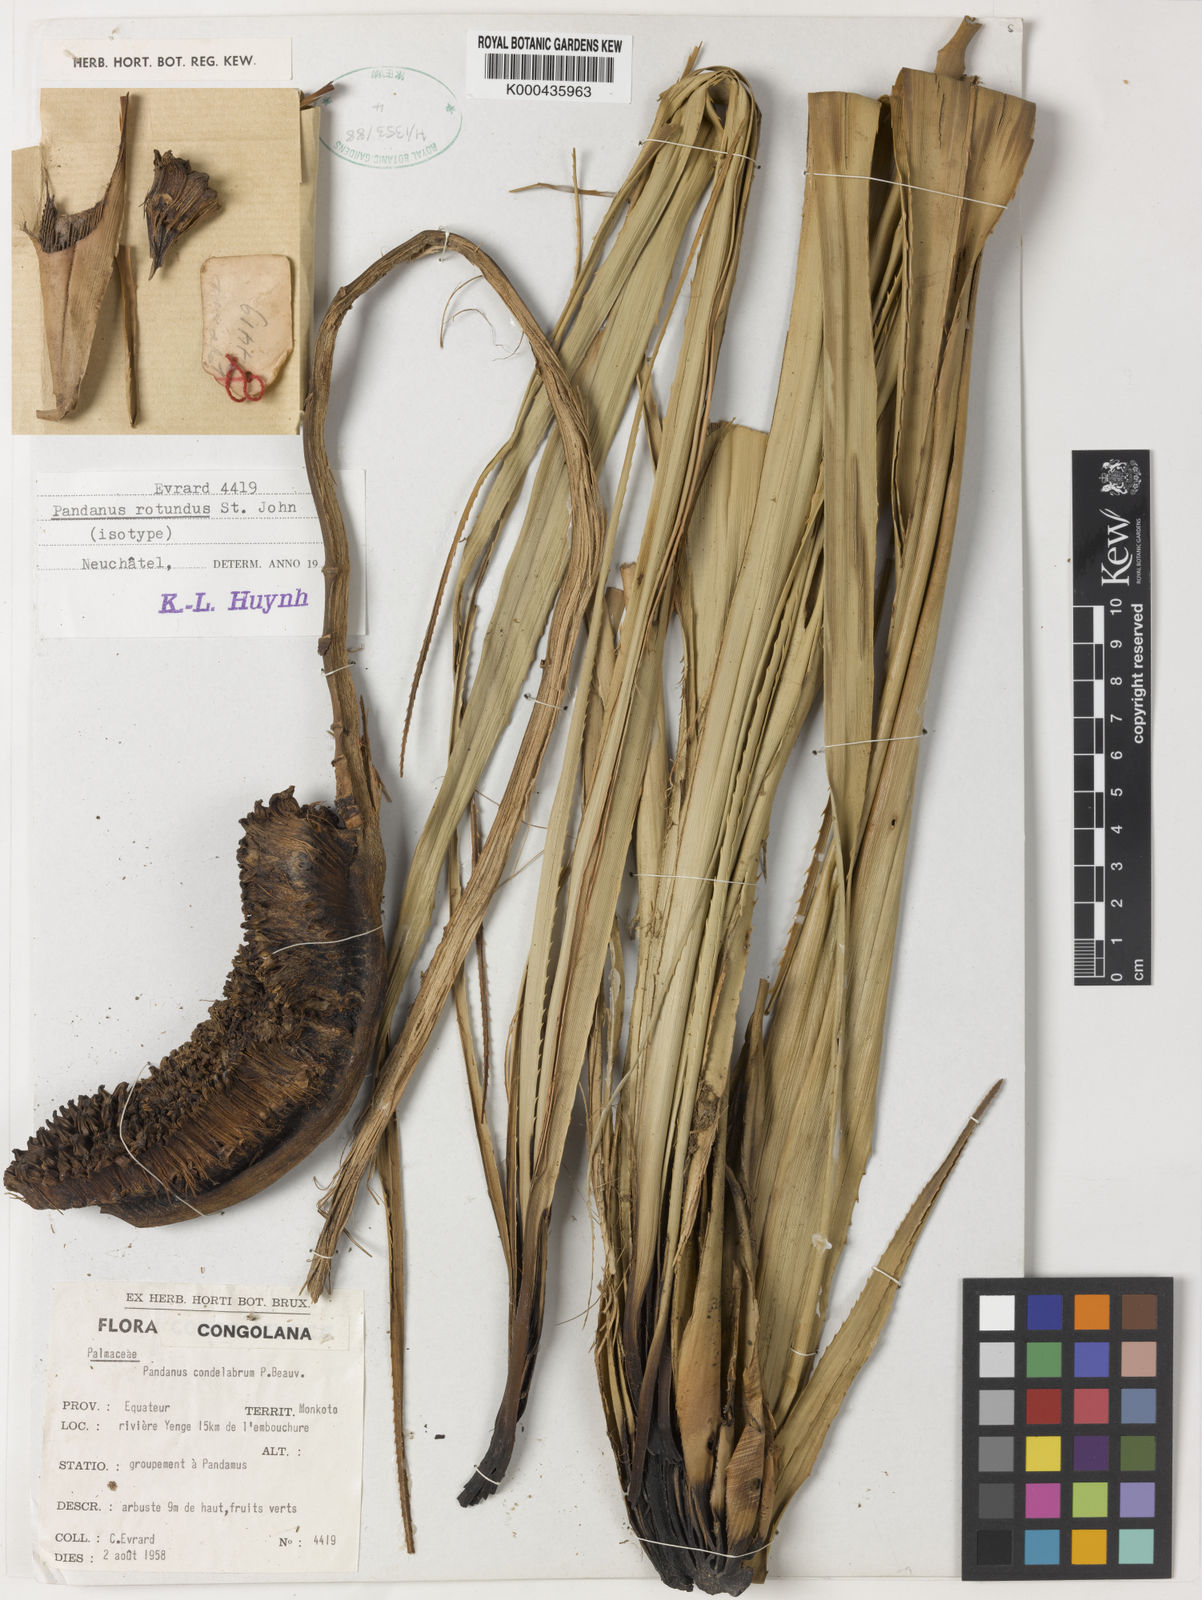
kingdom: Plantae
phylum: Tracheophyta
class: Liliopsida
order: Pandanales
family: Pandanaceae
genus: Pandanus
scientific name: Pandanus chiliocarpus
